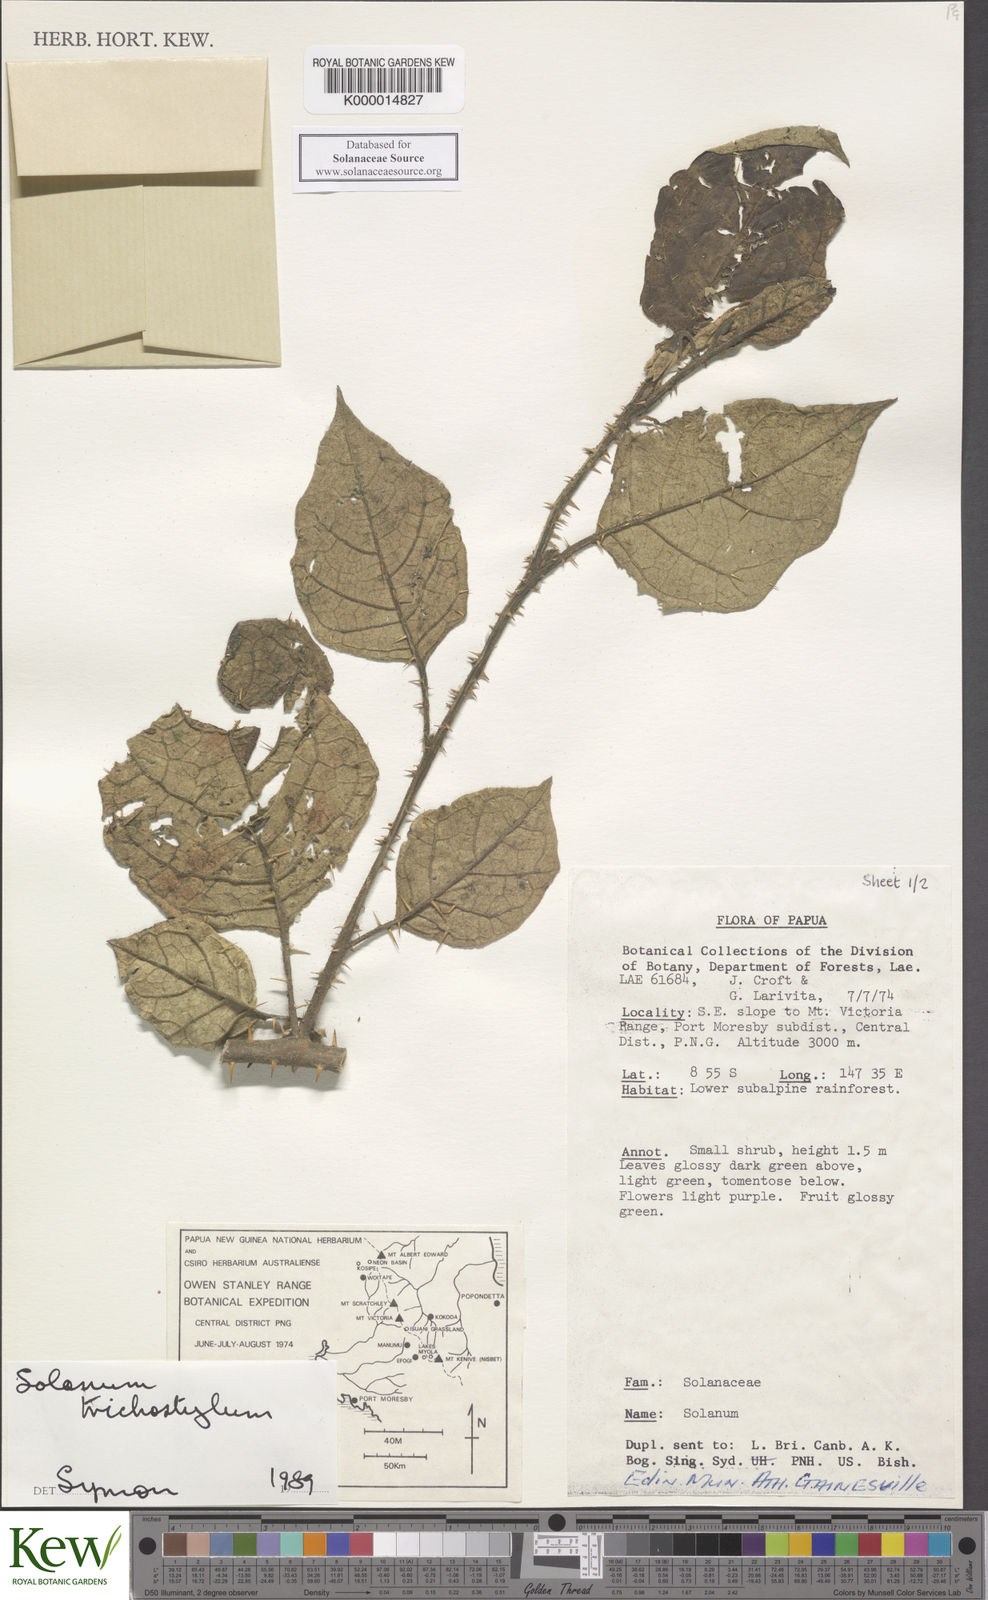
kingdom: Plantae
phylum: Tracheophyta
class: Magnoliopsida
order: Solanales
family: Solanaceae
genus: Solanum
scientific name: Solanum trichostylum
